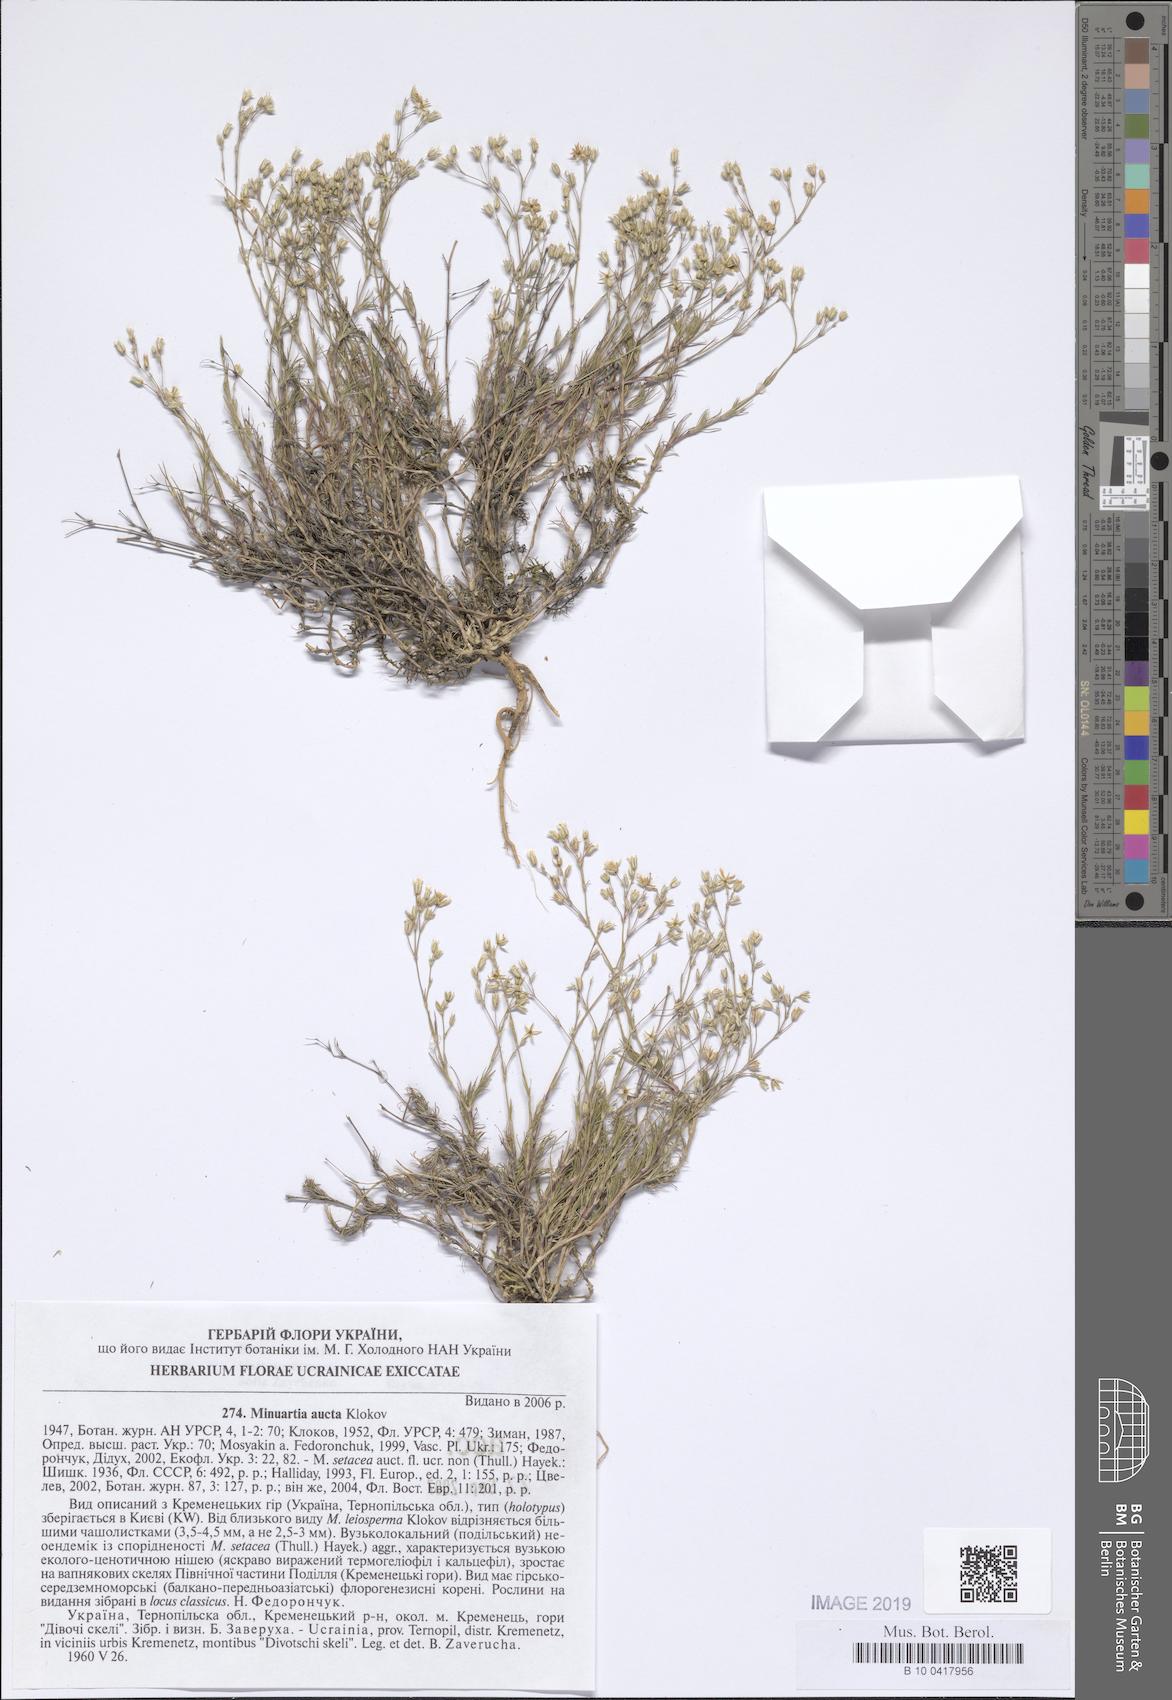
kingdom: Plantae
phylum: Tracheophyta
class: Magnoliopsida
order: Caryophyllales
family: Caryophyllaceae
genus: Minuartia
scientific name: Minuartia setacea
